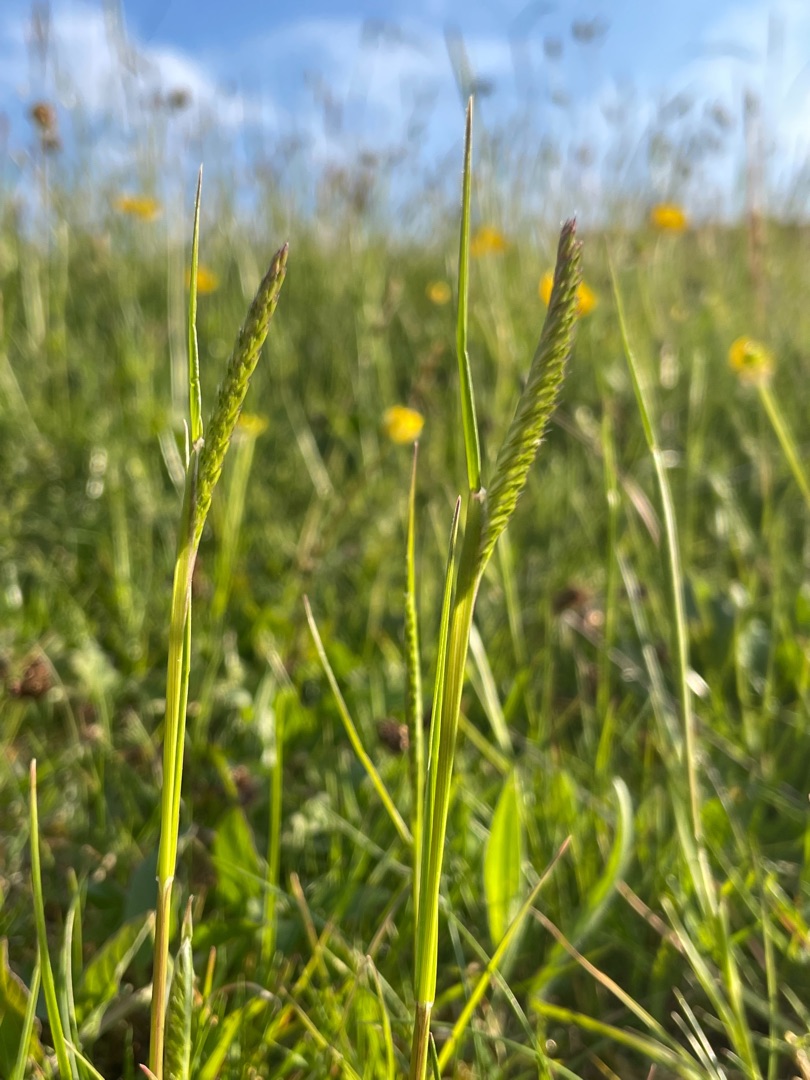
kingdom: Plantae
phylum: Tracheophyta
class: Liliopsida
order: Poales
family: Poaceae
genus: Cynosurus
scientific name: Cynosurus cristatus
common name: Kamgræs
